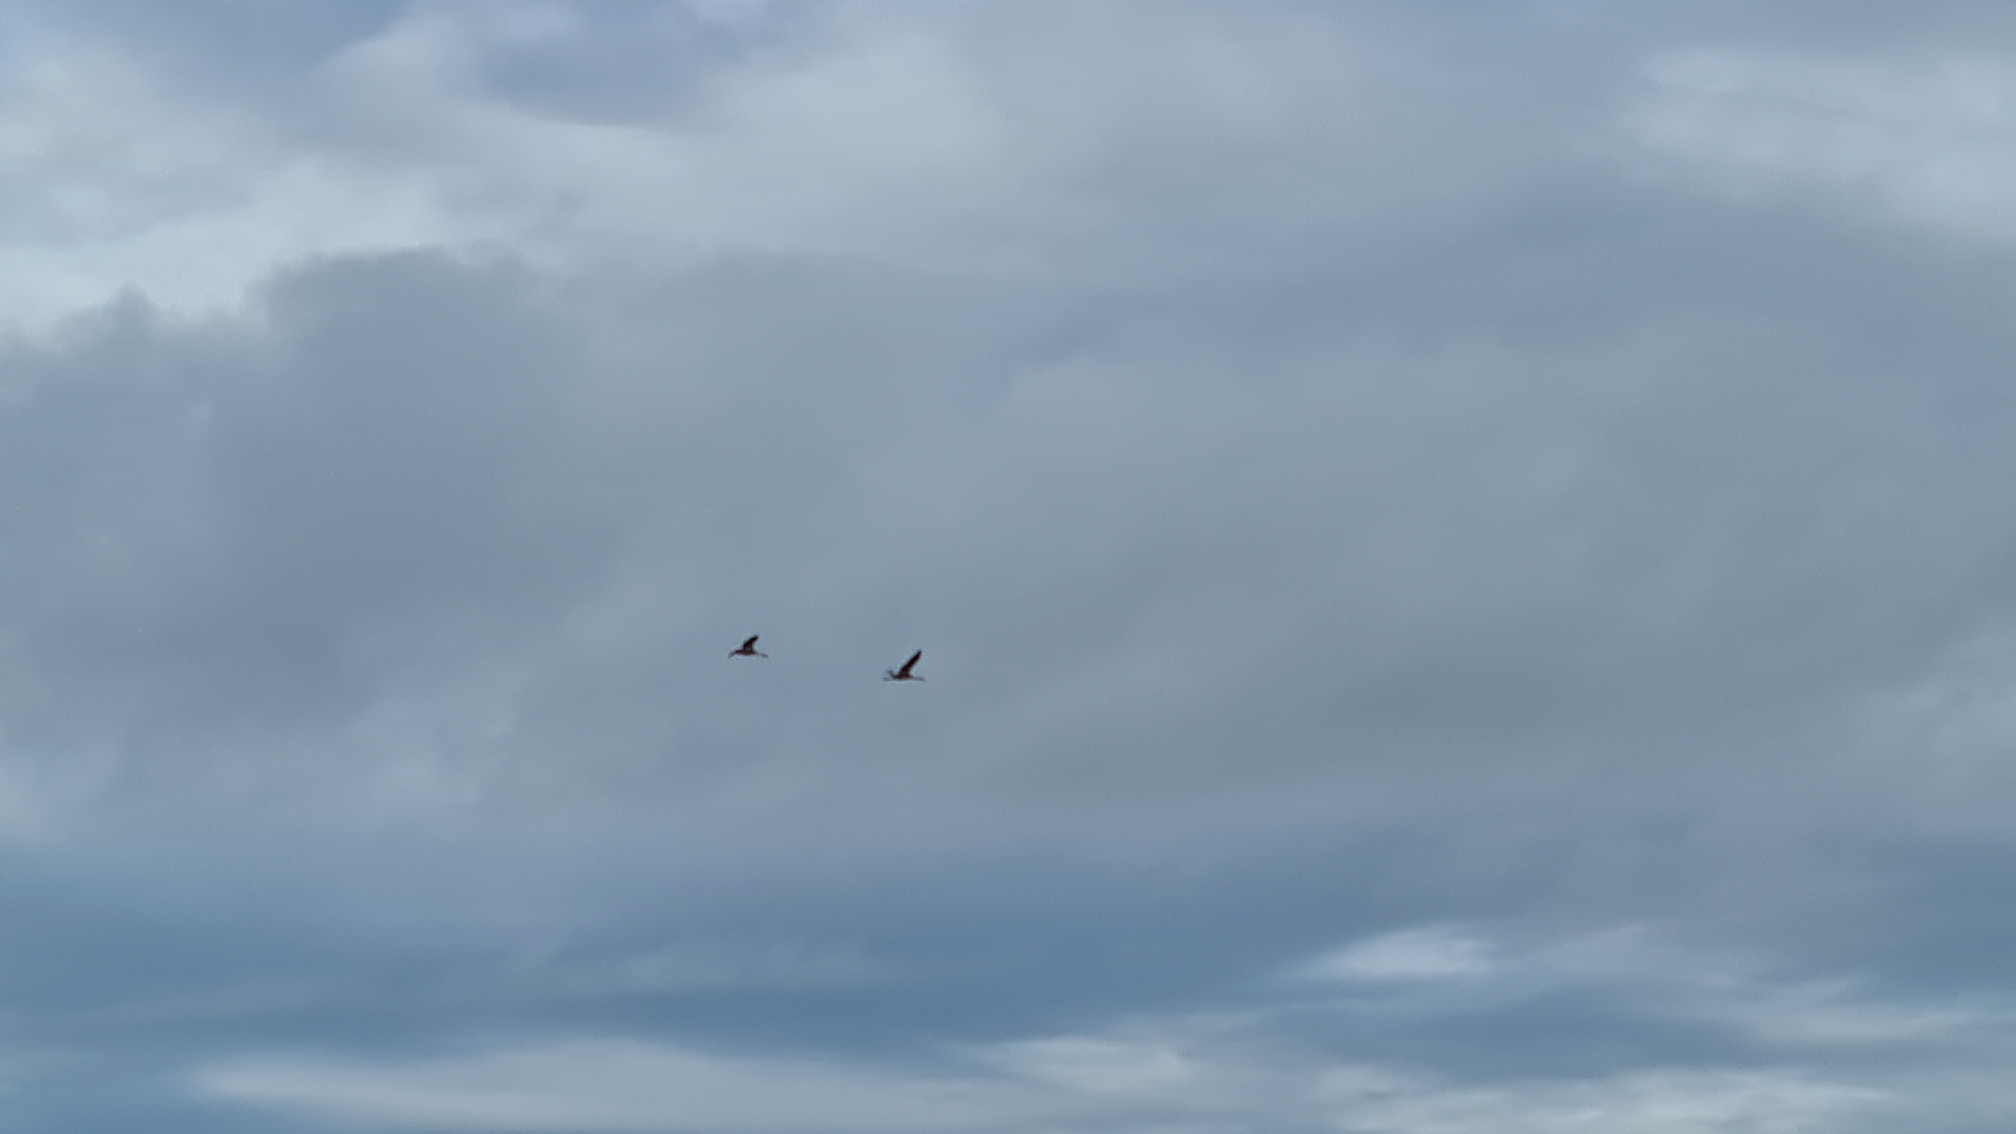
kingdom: Animalia
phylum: Chordata
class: Aves
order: Gruiformes
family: Gruidae
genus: Grus
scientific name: Grus grus
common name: Trane
